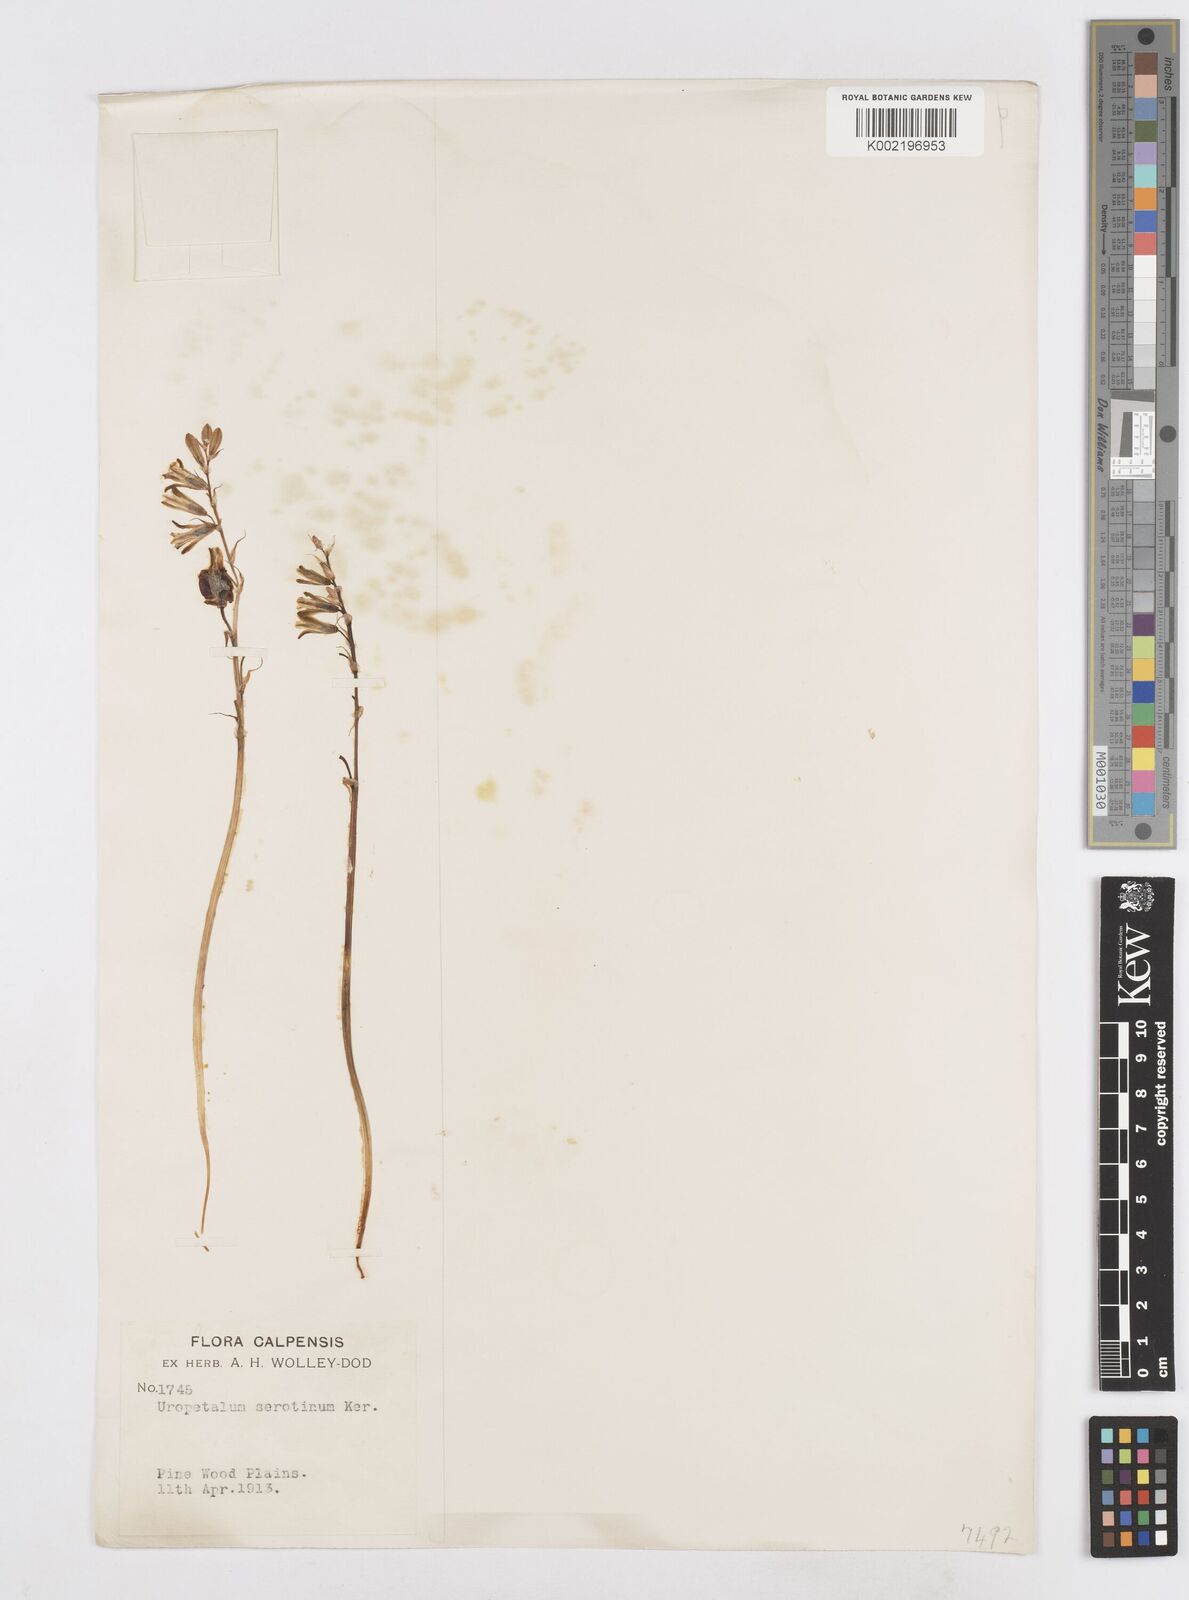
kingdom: Plantae
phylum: Tracheophyta
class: Liliopsida
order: Asparagales
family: Asparagaceae
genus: Dipcadi
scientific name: Dipcadi serotinum
